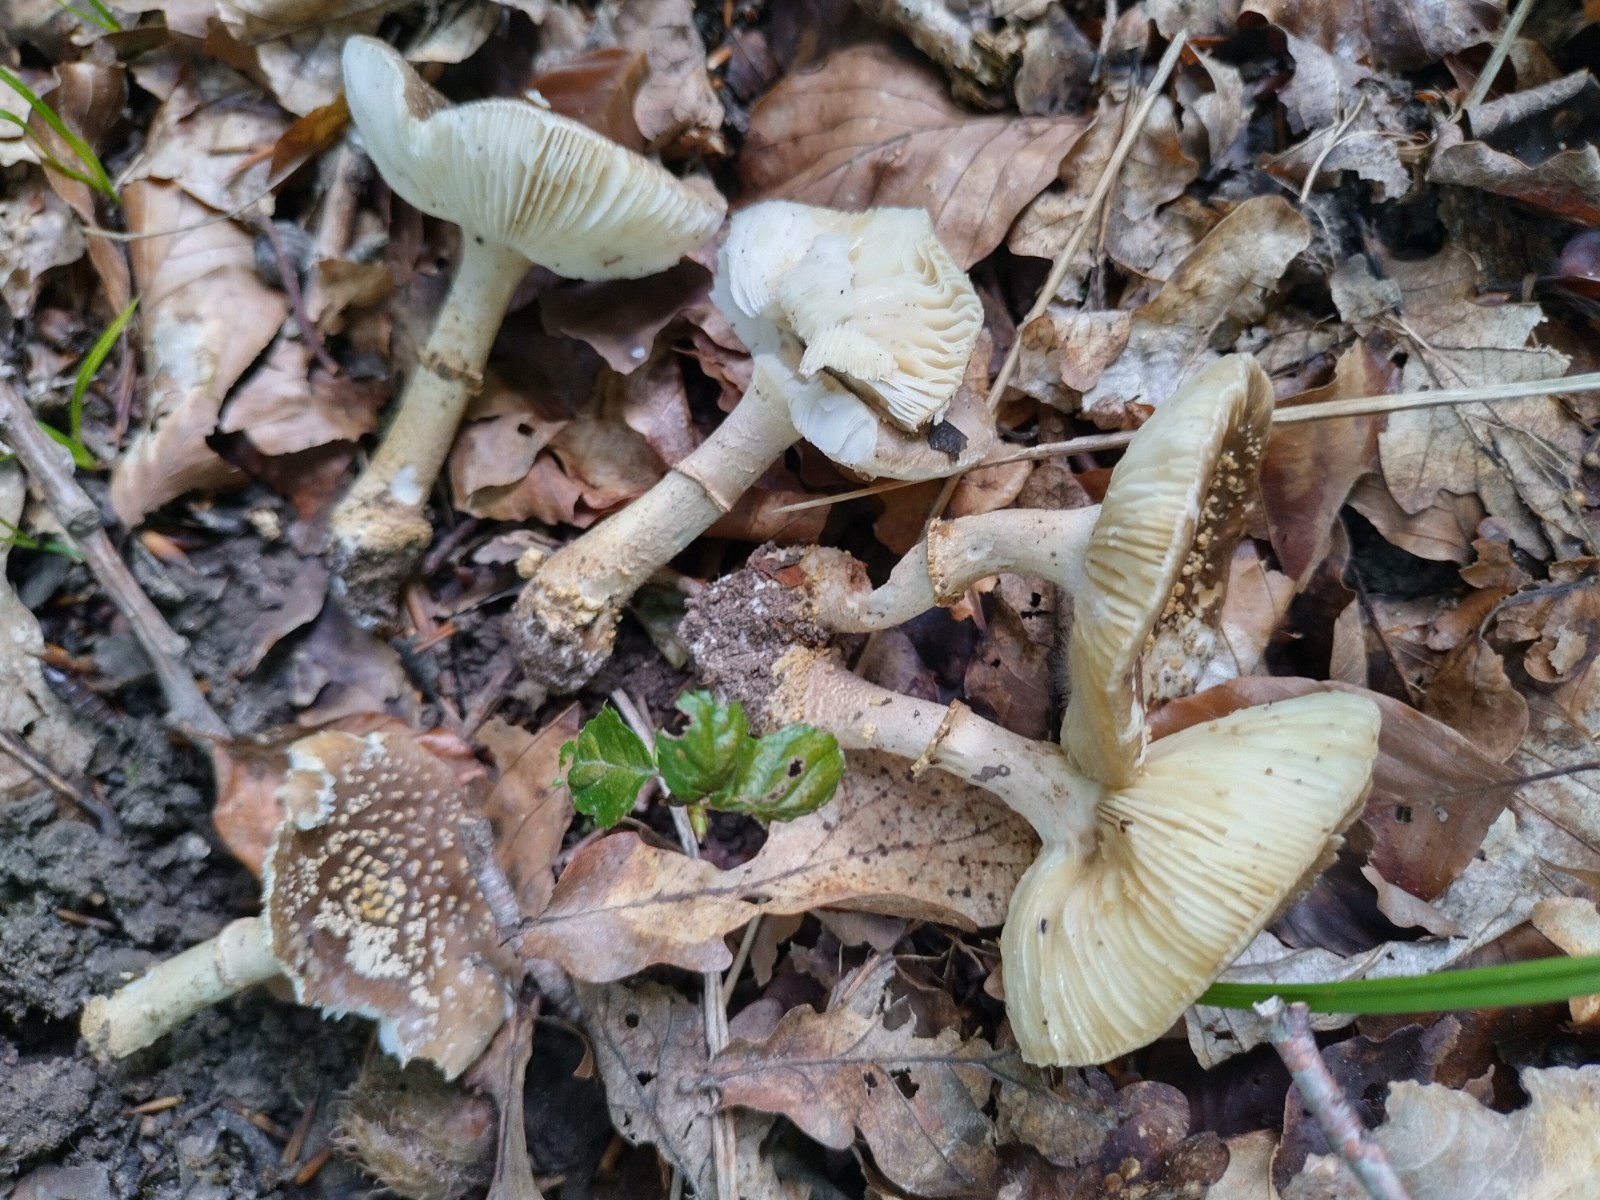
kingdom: Fungi
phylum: Basidiomycota
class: Agaricomycetes
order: Agaricales
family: Amanitaceae
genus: Amanita
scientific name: Amanita franchetii
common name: gulrandet fluesvamp
